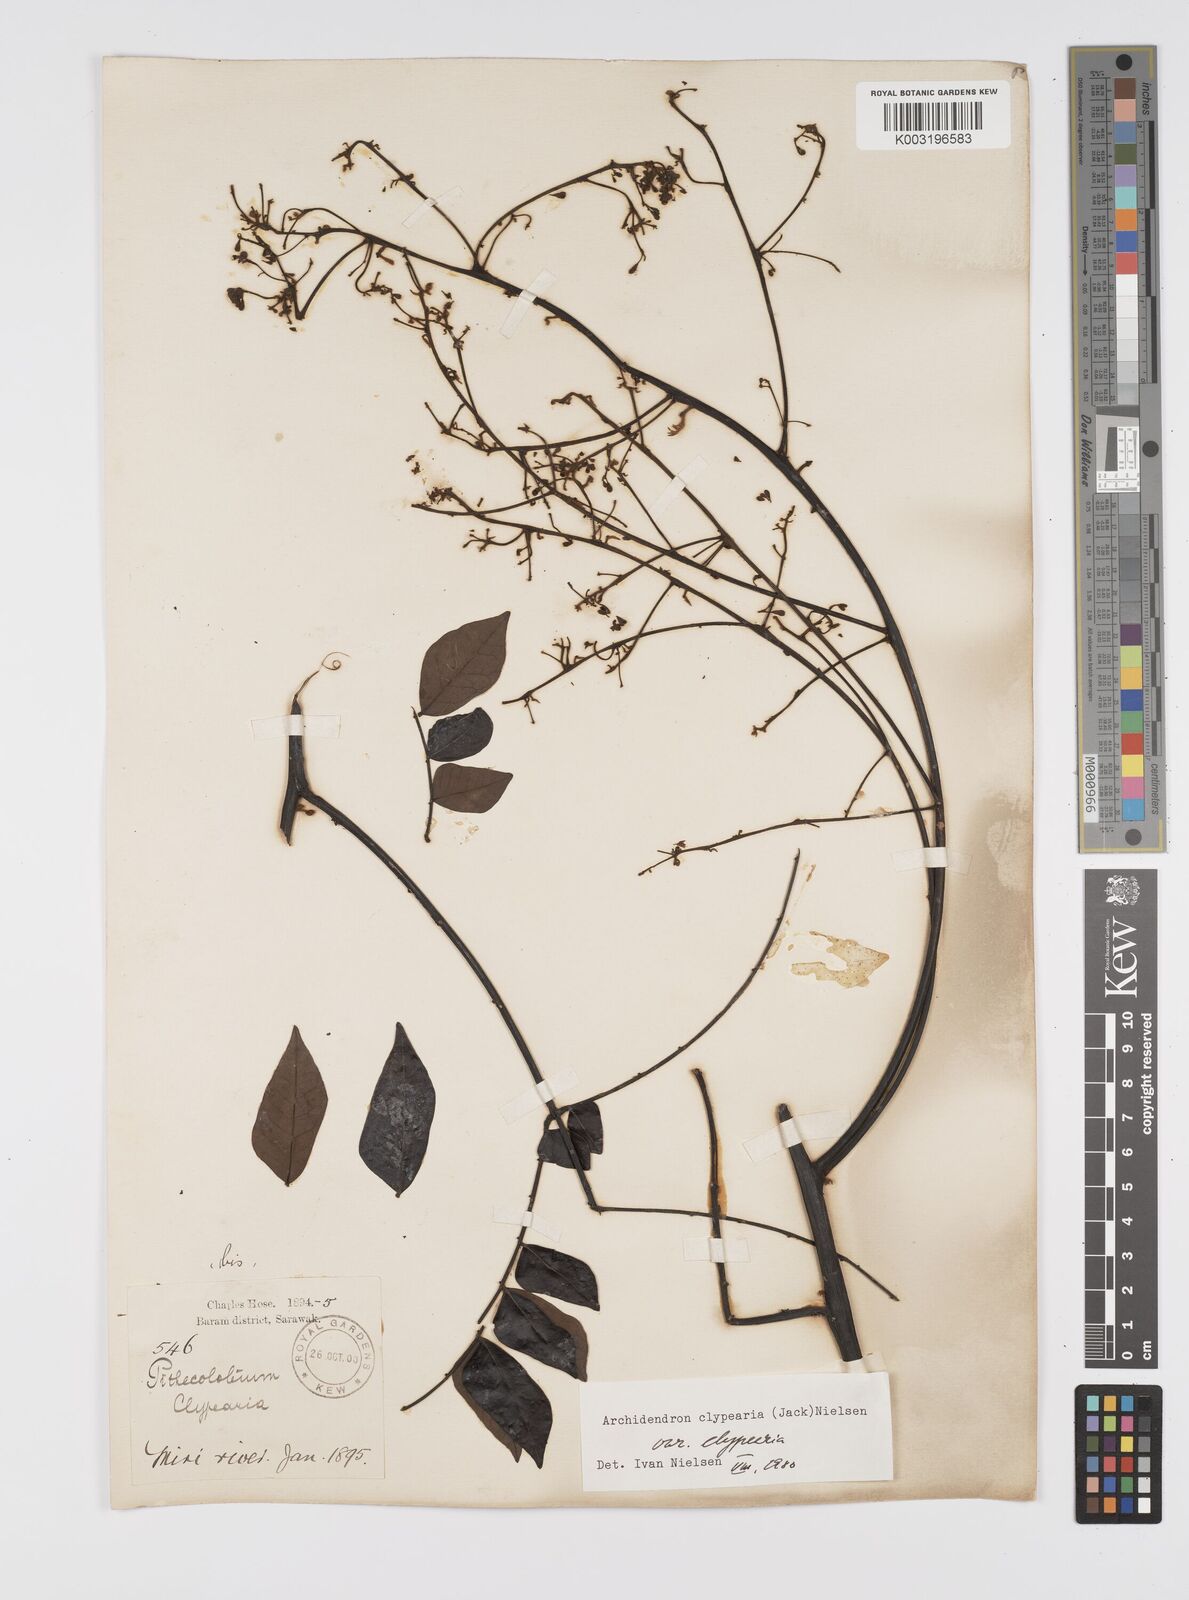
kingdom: Plantae
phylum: Tracheophyta
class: Magnoliopsida
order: Fabales
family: Fabaceae
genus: Archidendron
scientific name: Archidendron clypearia
